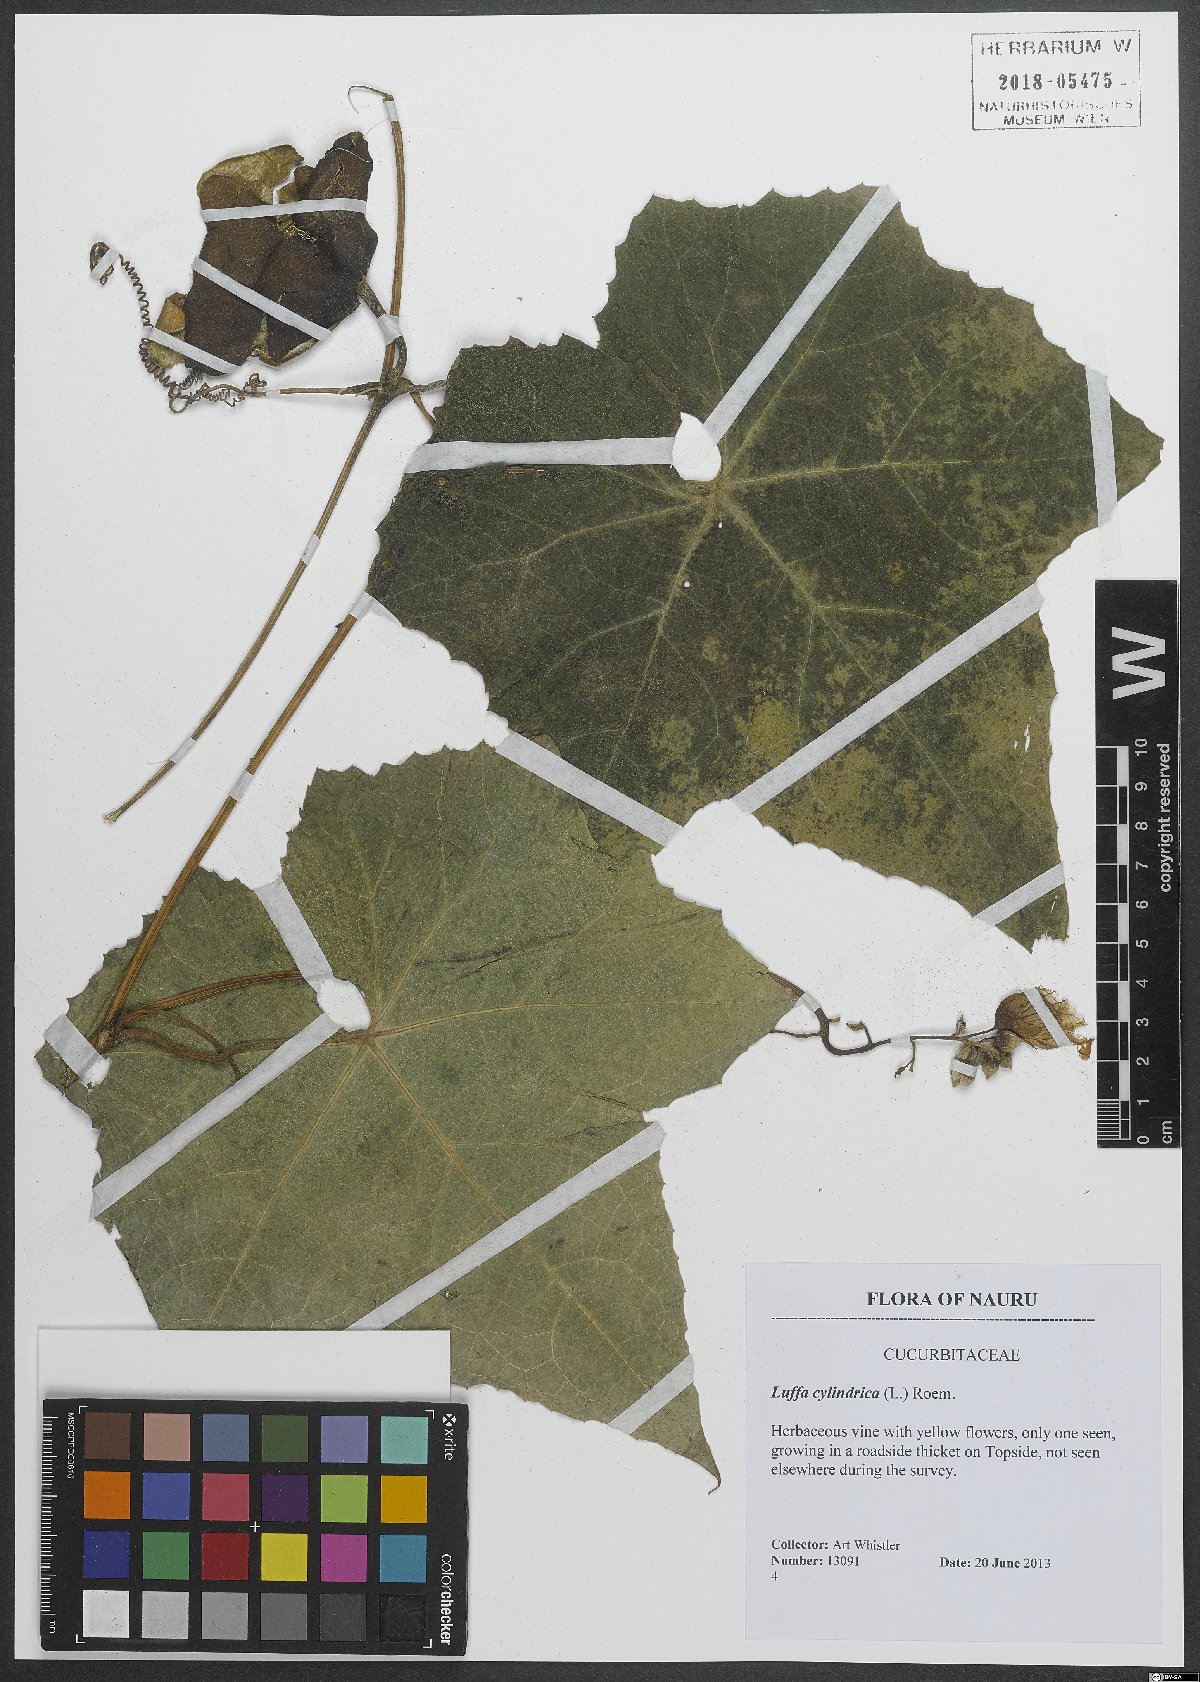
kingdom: Plantae
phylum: Tracheophyta
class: Magnoliopsida
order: Cucurbitales
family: Cucurbitaceae
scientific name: Cucurbitaceae
